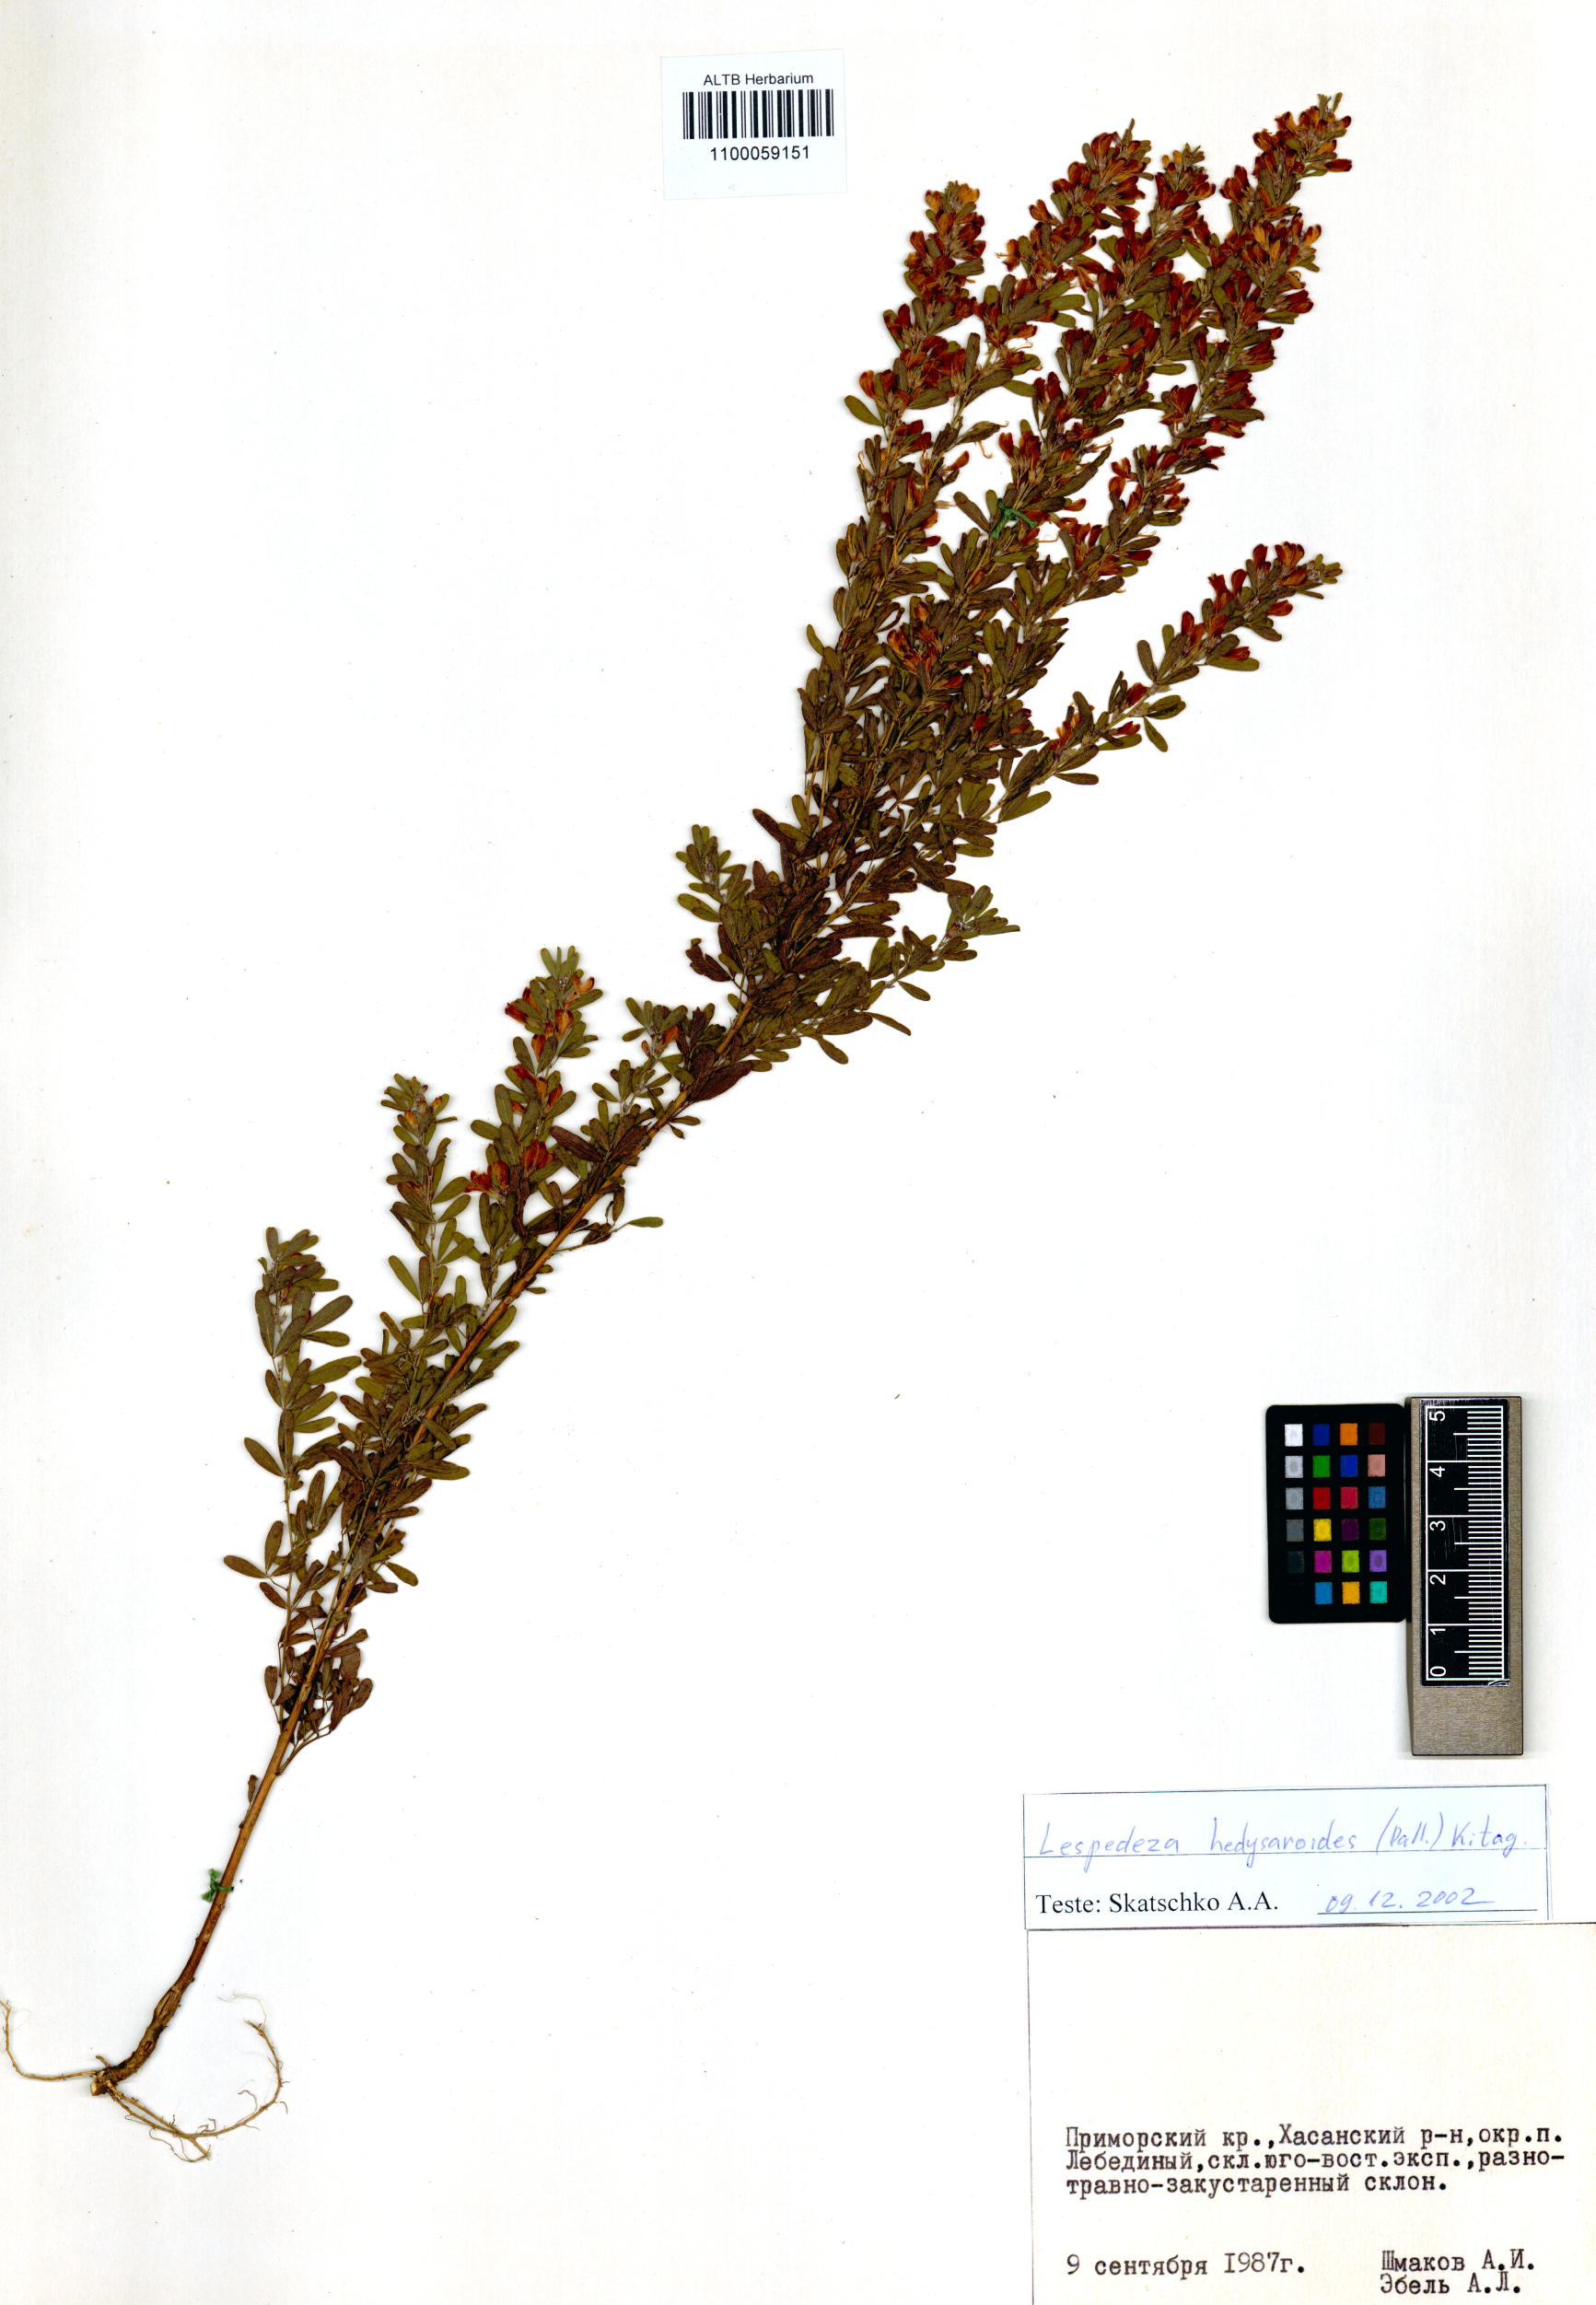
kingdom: Plantae
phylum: Tracheophyta
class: Magnoliopsida
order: Fabales
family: Fabaceae
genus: Lespedeza
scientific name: Lespedeza juncea
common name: Siberian lespedeza
